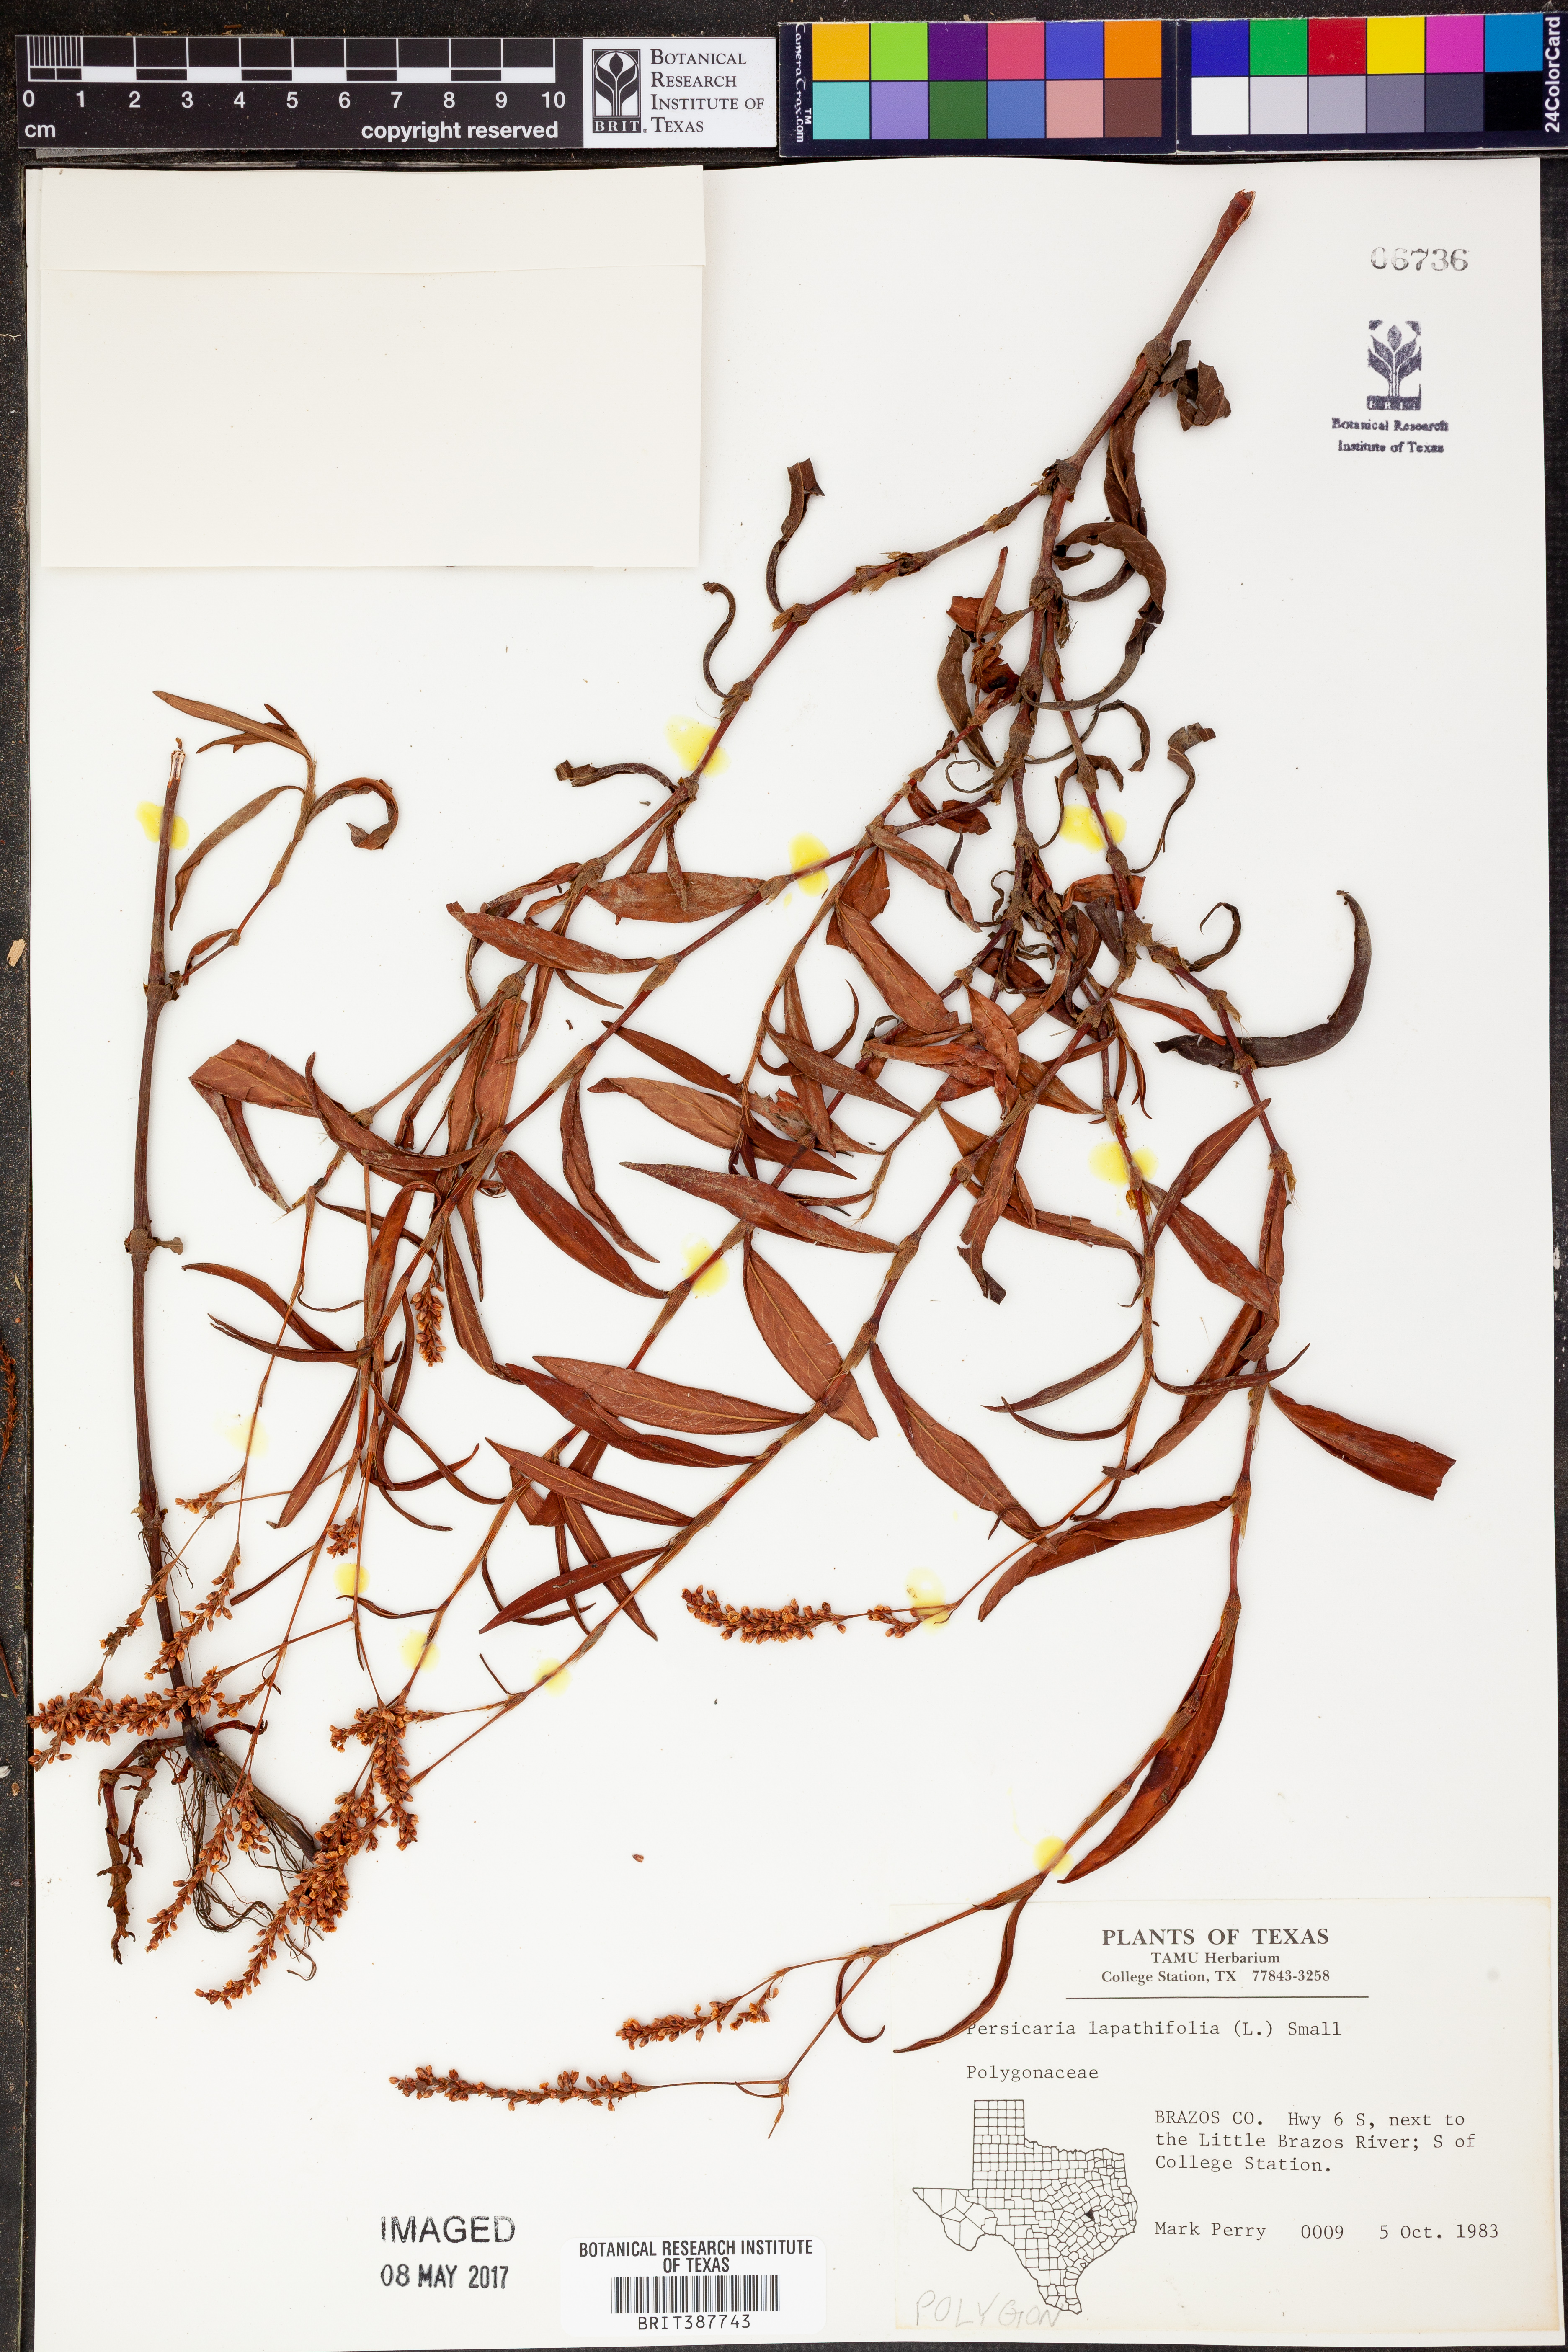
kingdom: Plantae
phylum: Tracheophyta
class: Magnoliopsida
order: Caryophyllales
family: Polygonaceae
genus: Persicaria
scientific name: Persicaria lapathifolia
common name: Curlytop knotweed
